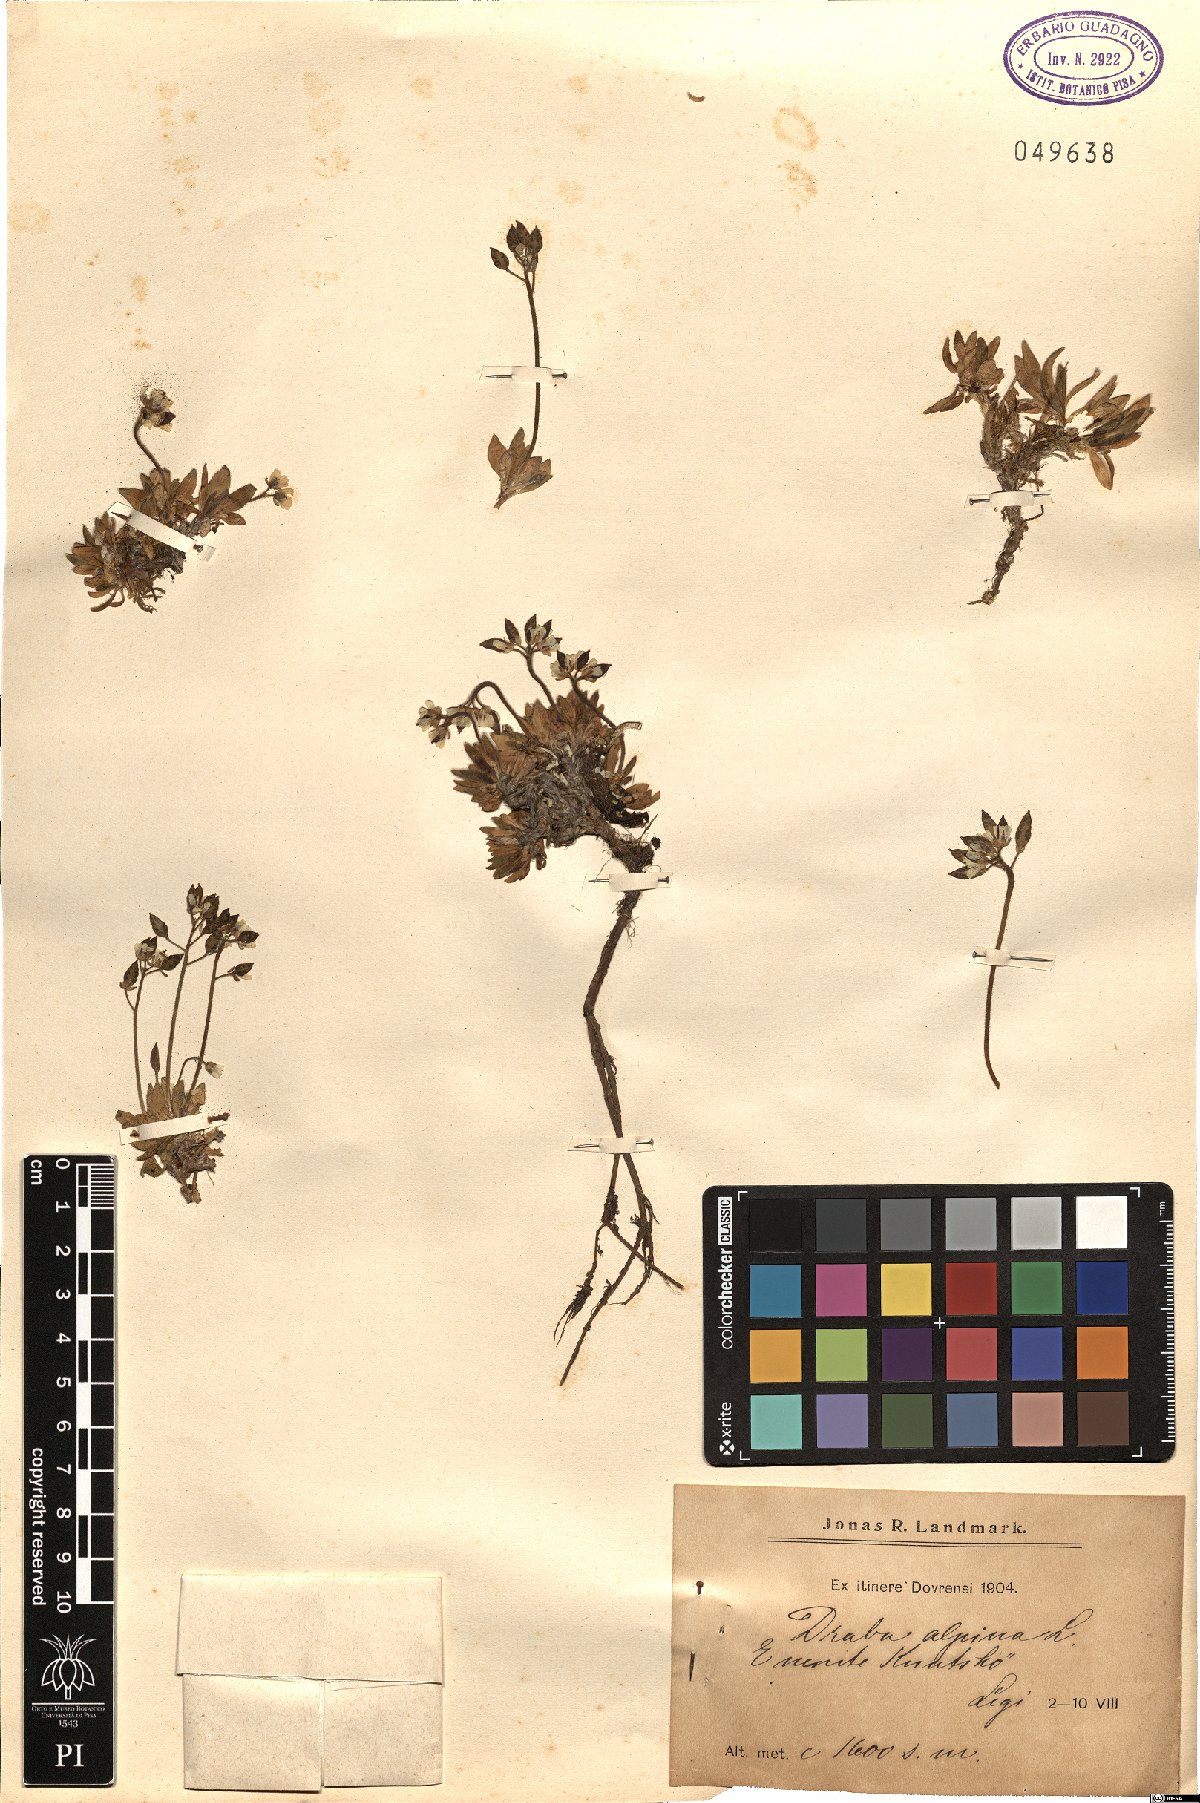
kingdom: Plantae
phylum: Tracheophyta
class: Magnoliopsida
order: Brassicales
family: Brassicaceae
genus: Draba
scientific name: Draba alpina
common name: Alpine draba
